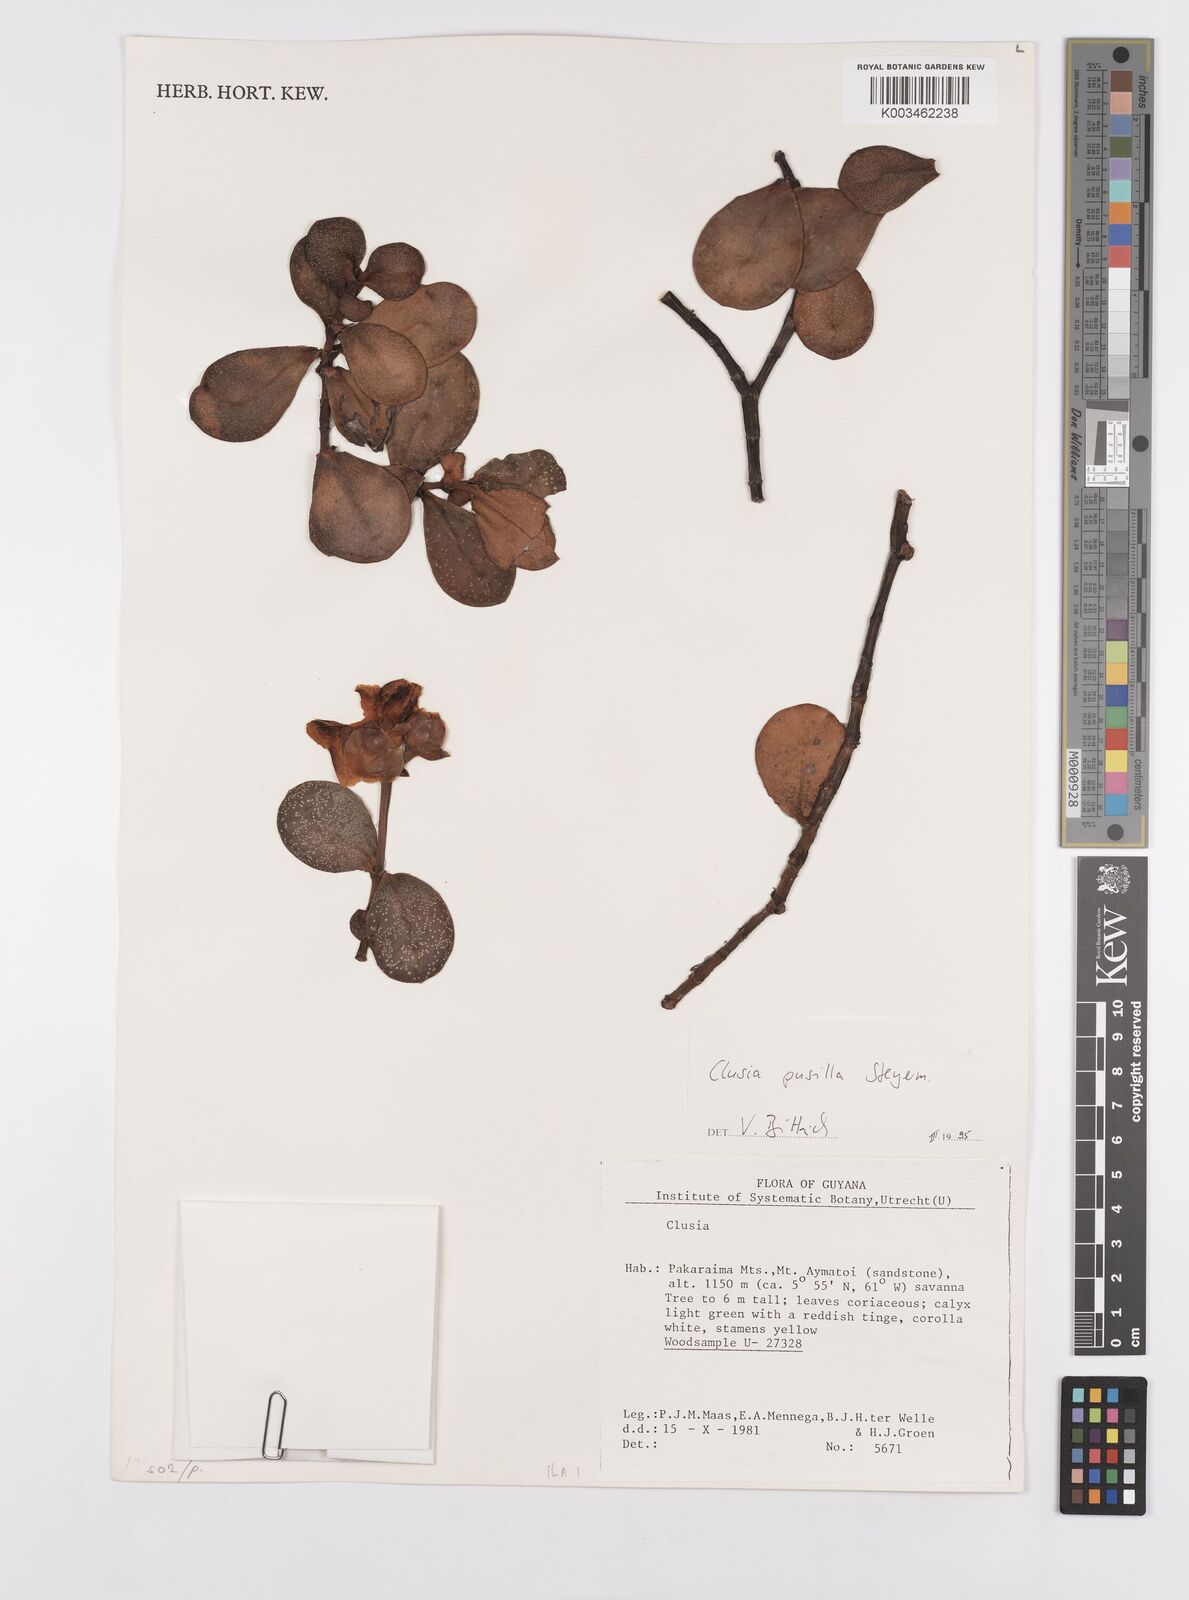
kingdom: Plantae
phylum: Tracheophyta
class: Magnoliopsida
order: Malpighiales
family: Clusiaceae
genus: Clusia
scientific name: Clusia pusilla
